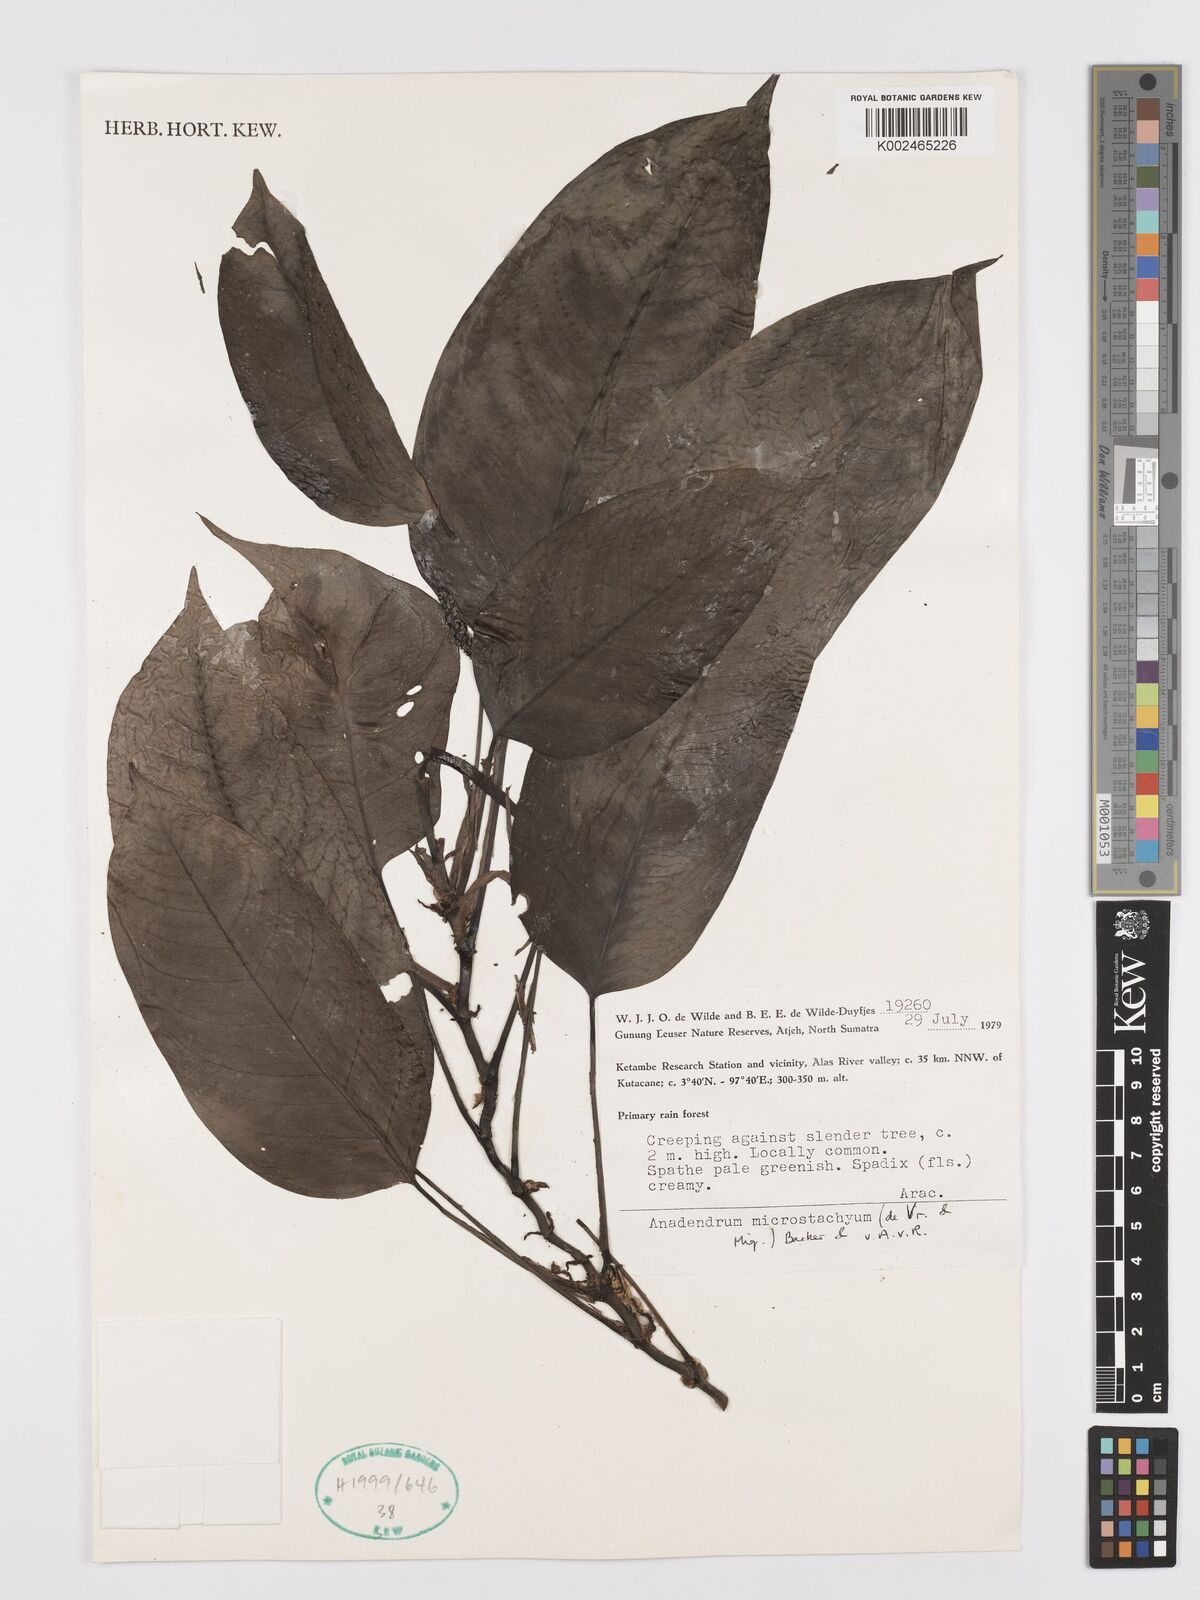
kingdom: Plantae
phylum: Tracheophyta
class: Liliopsida
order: Alismatales
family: Araceae
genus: Anadendrum
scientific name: Anadendrum microstachyum
